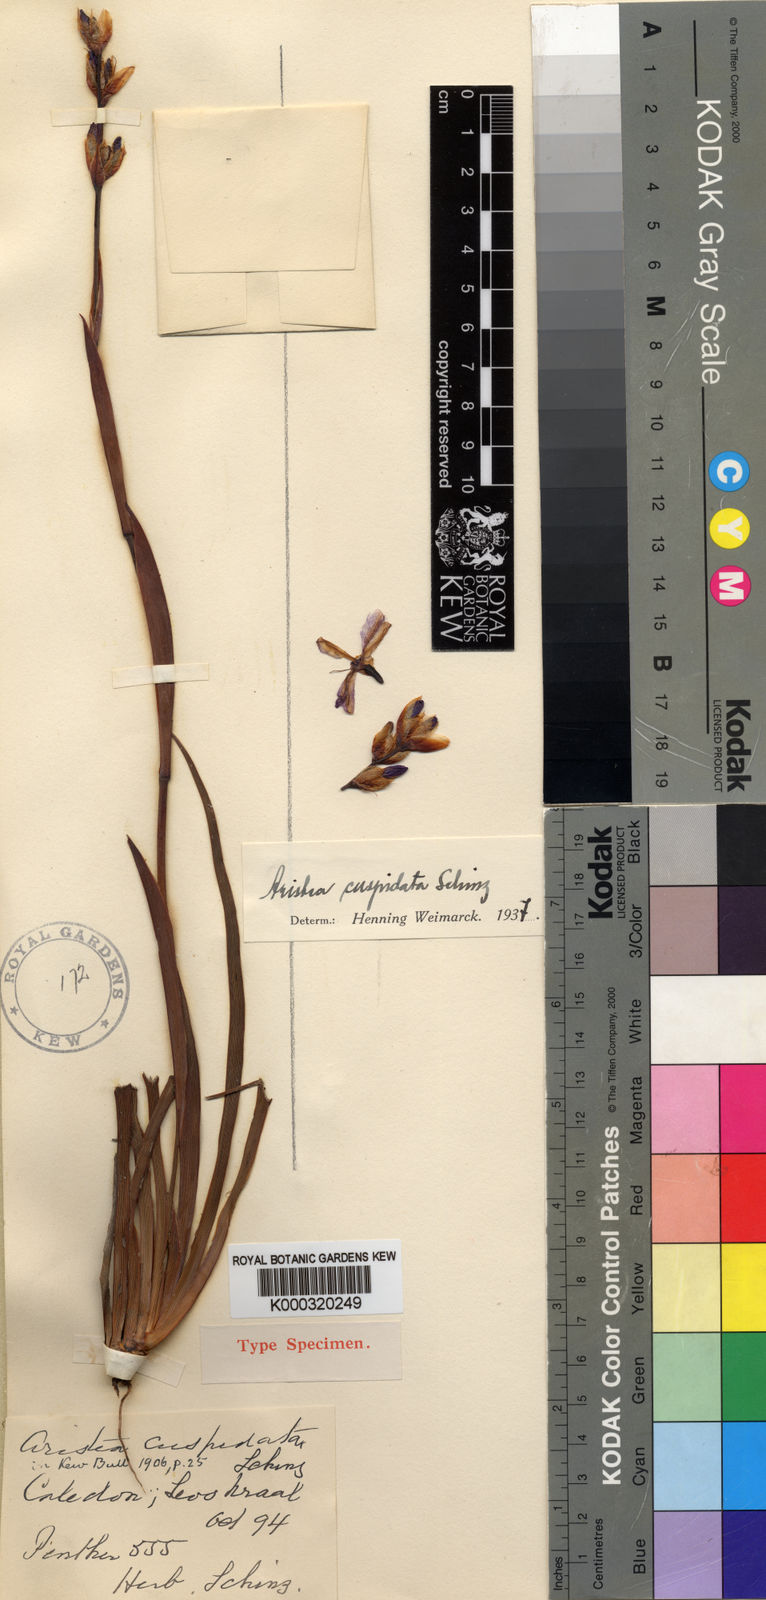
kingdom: Plantae
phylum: Tracheophyta
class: Liliopsida
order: Asparagales
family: Iridaceae
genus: Aristea
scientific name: Aristea cuspidata
